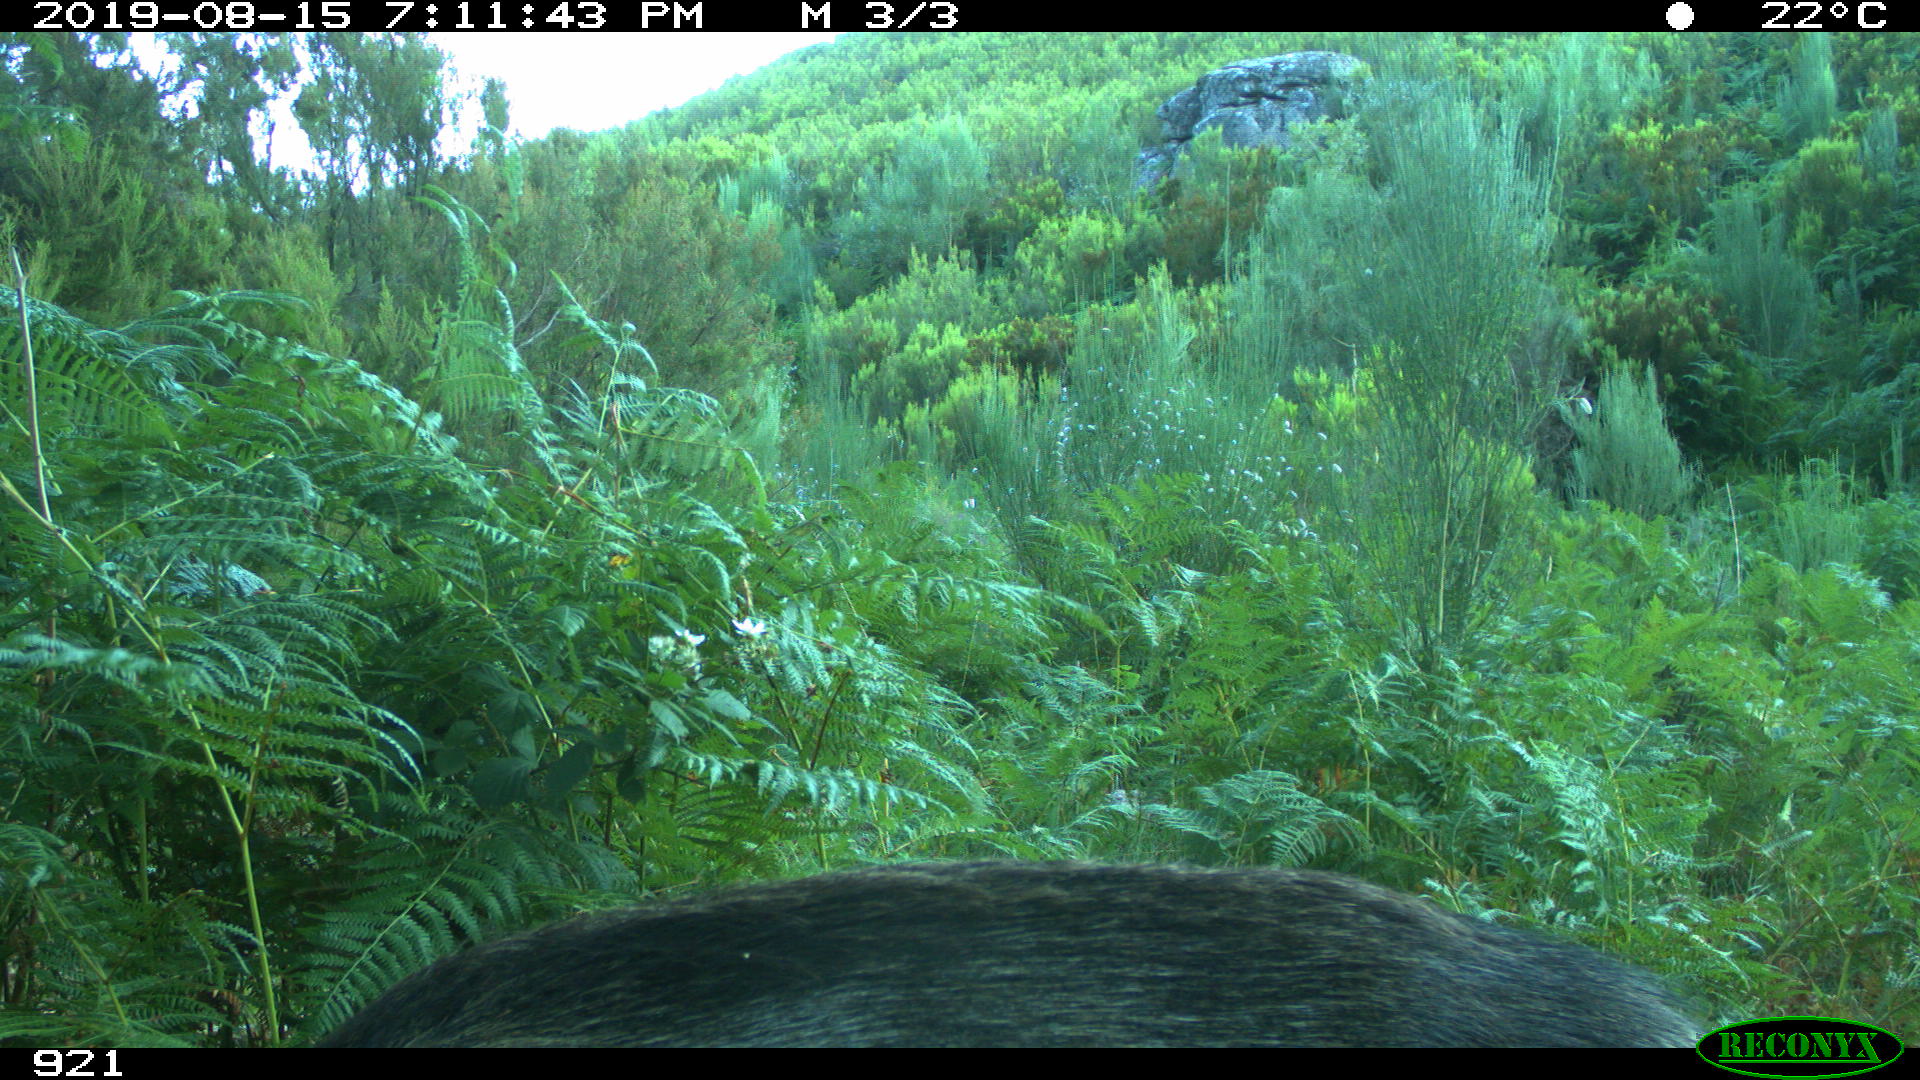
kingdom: Animalia
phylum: Chordata
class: Mammalia
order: Artiodactyla
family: Suidae
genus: Sus
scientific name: Sus scrofa
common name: Wild boar
